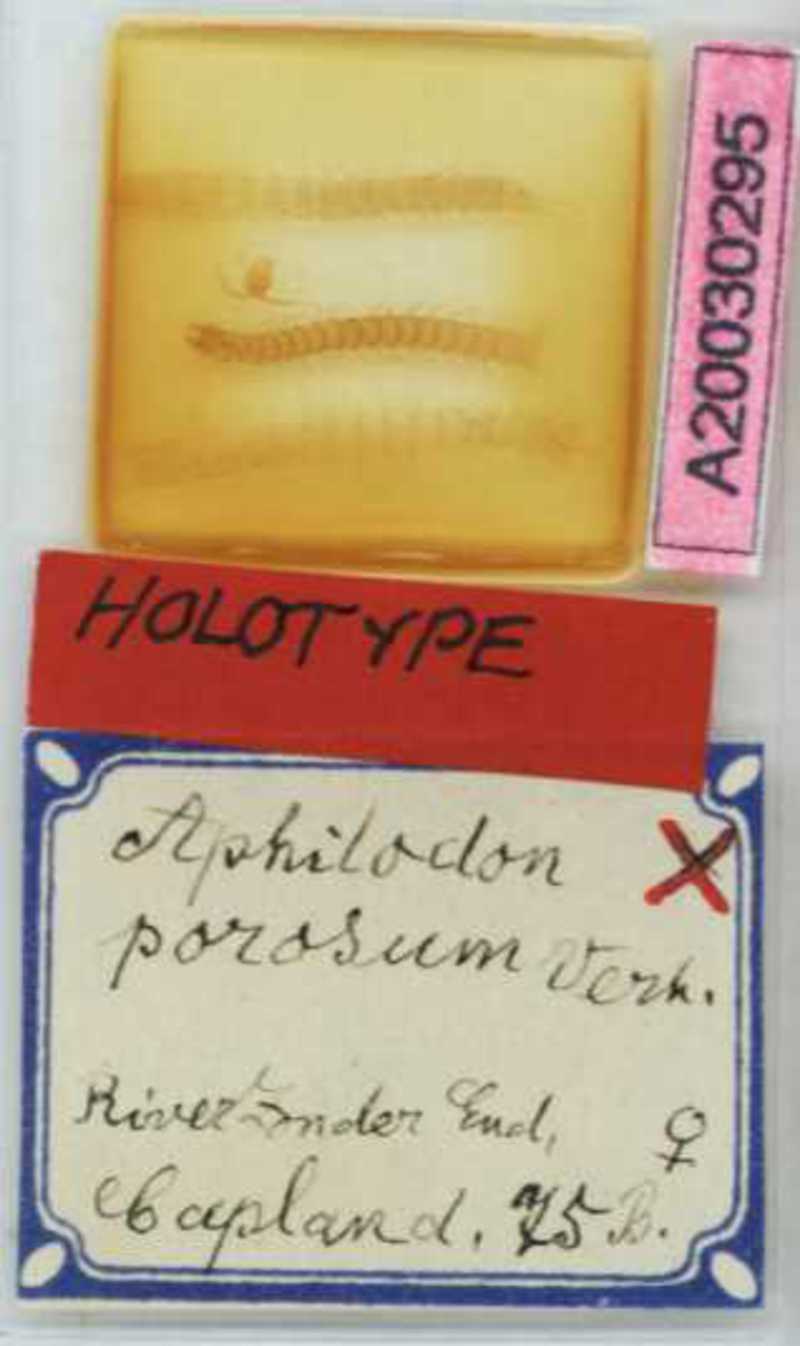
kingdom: Animalia
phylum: Arthropoda
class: Chilopoda
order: Geophilomorpha
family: Aphilodontidae
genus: Aphilodon
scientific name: Aphilodon porosus
